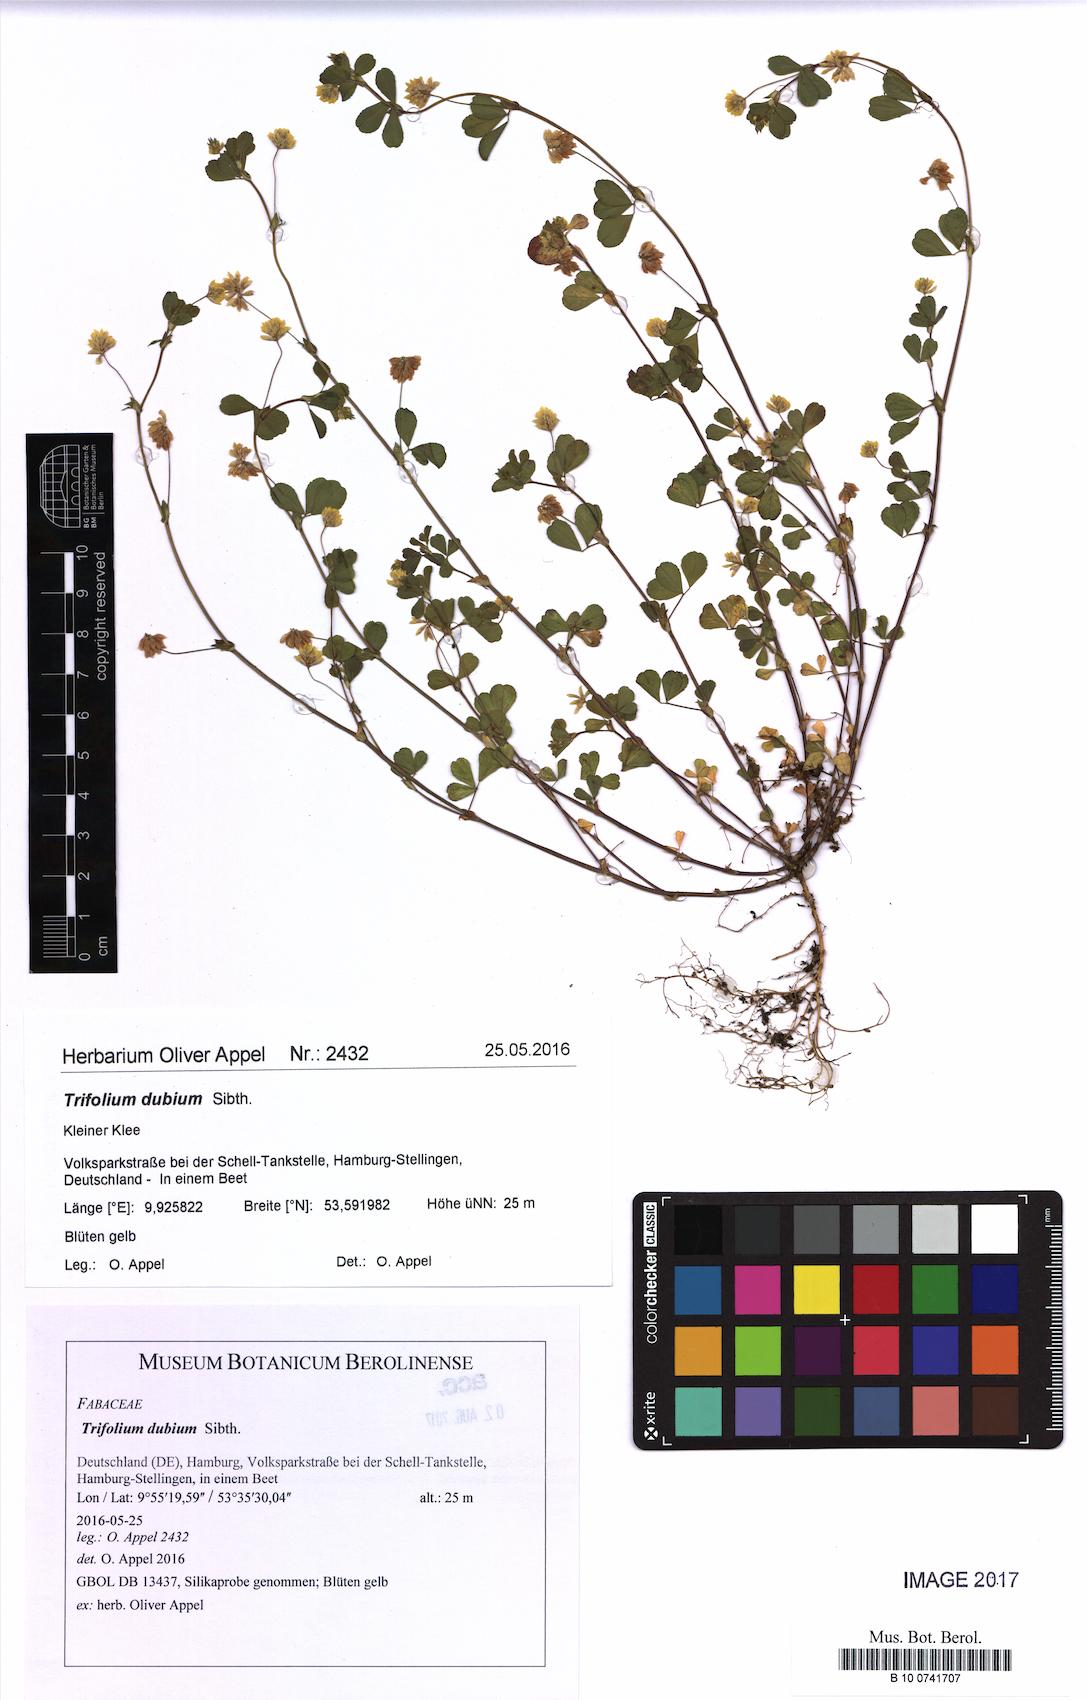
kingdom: Plantae
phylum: Tracheophyta
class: Magnoliopsida
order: Fabales
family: Fabaceae
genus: Trifolium
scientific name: Trifolium dubium
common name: Suckling clover
